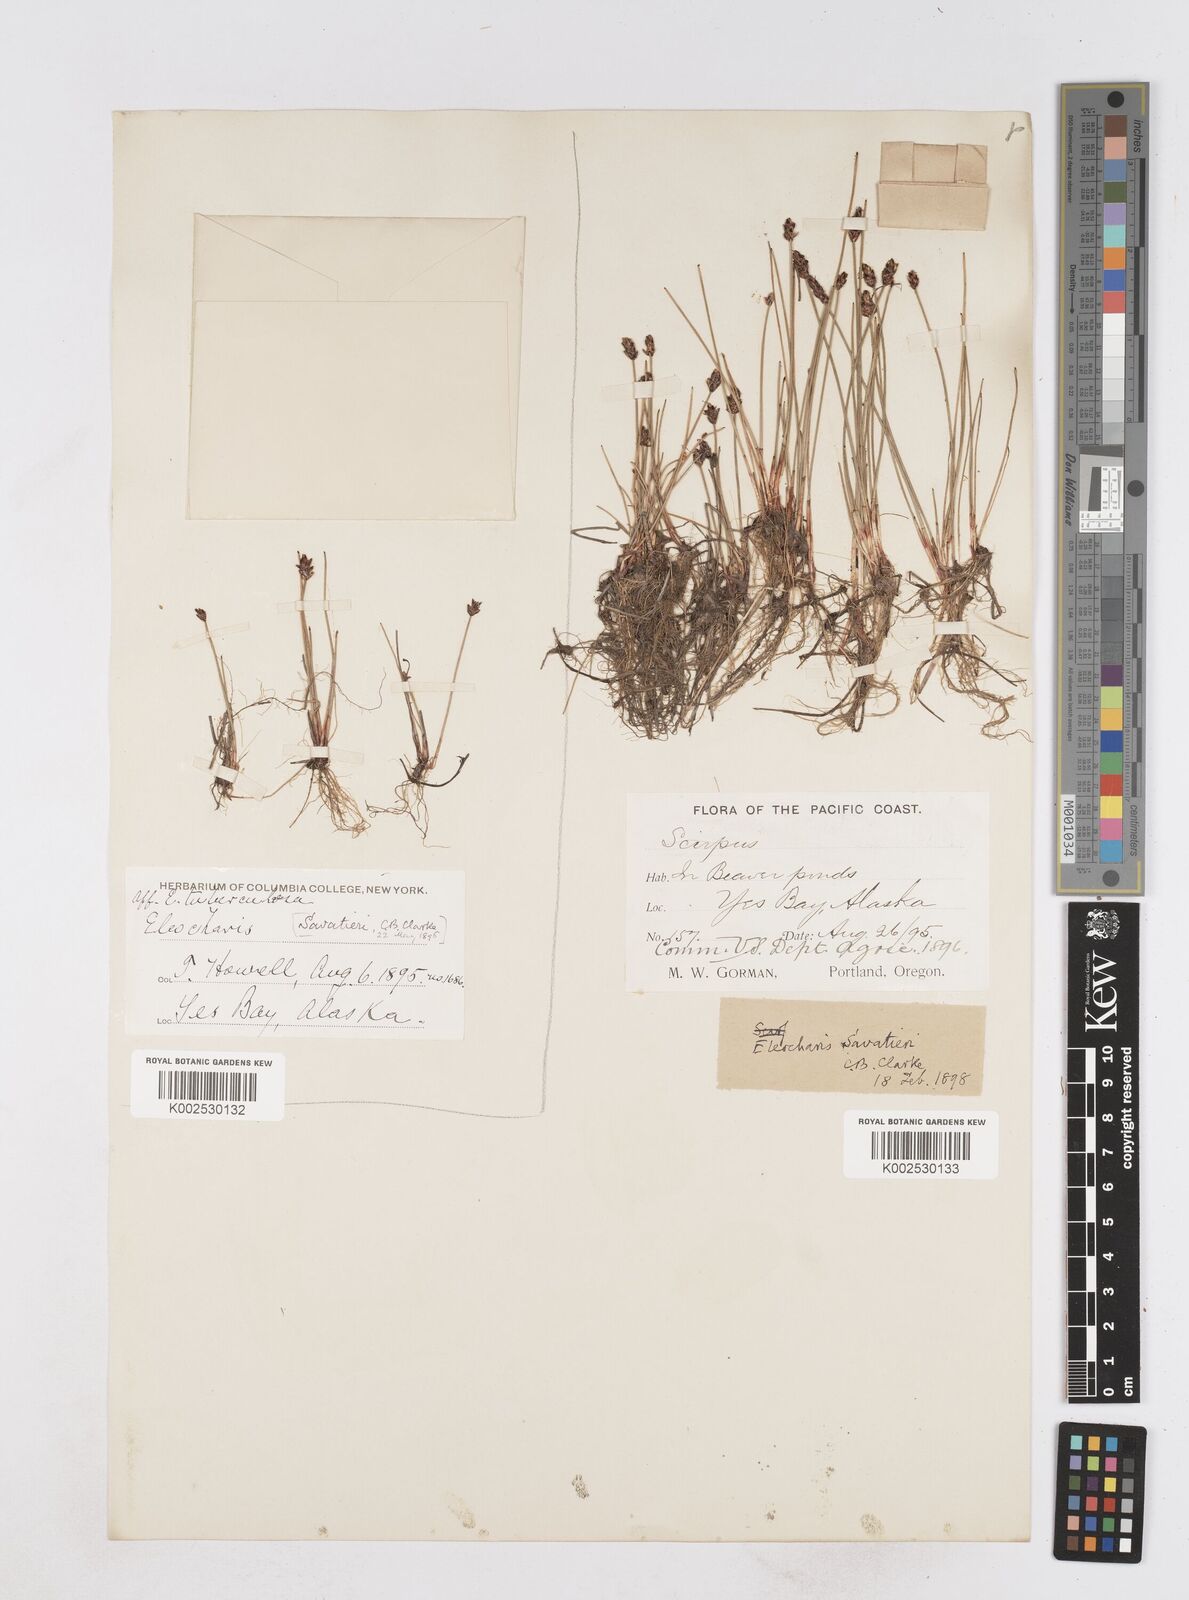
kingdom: Plantae
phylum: Tracheophyta
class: Liliopsida
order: Poales
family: Cyperaceae
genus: Eleocharis
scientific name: Eleocharis kamtschatica
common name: Kamchatka spikerush
